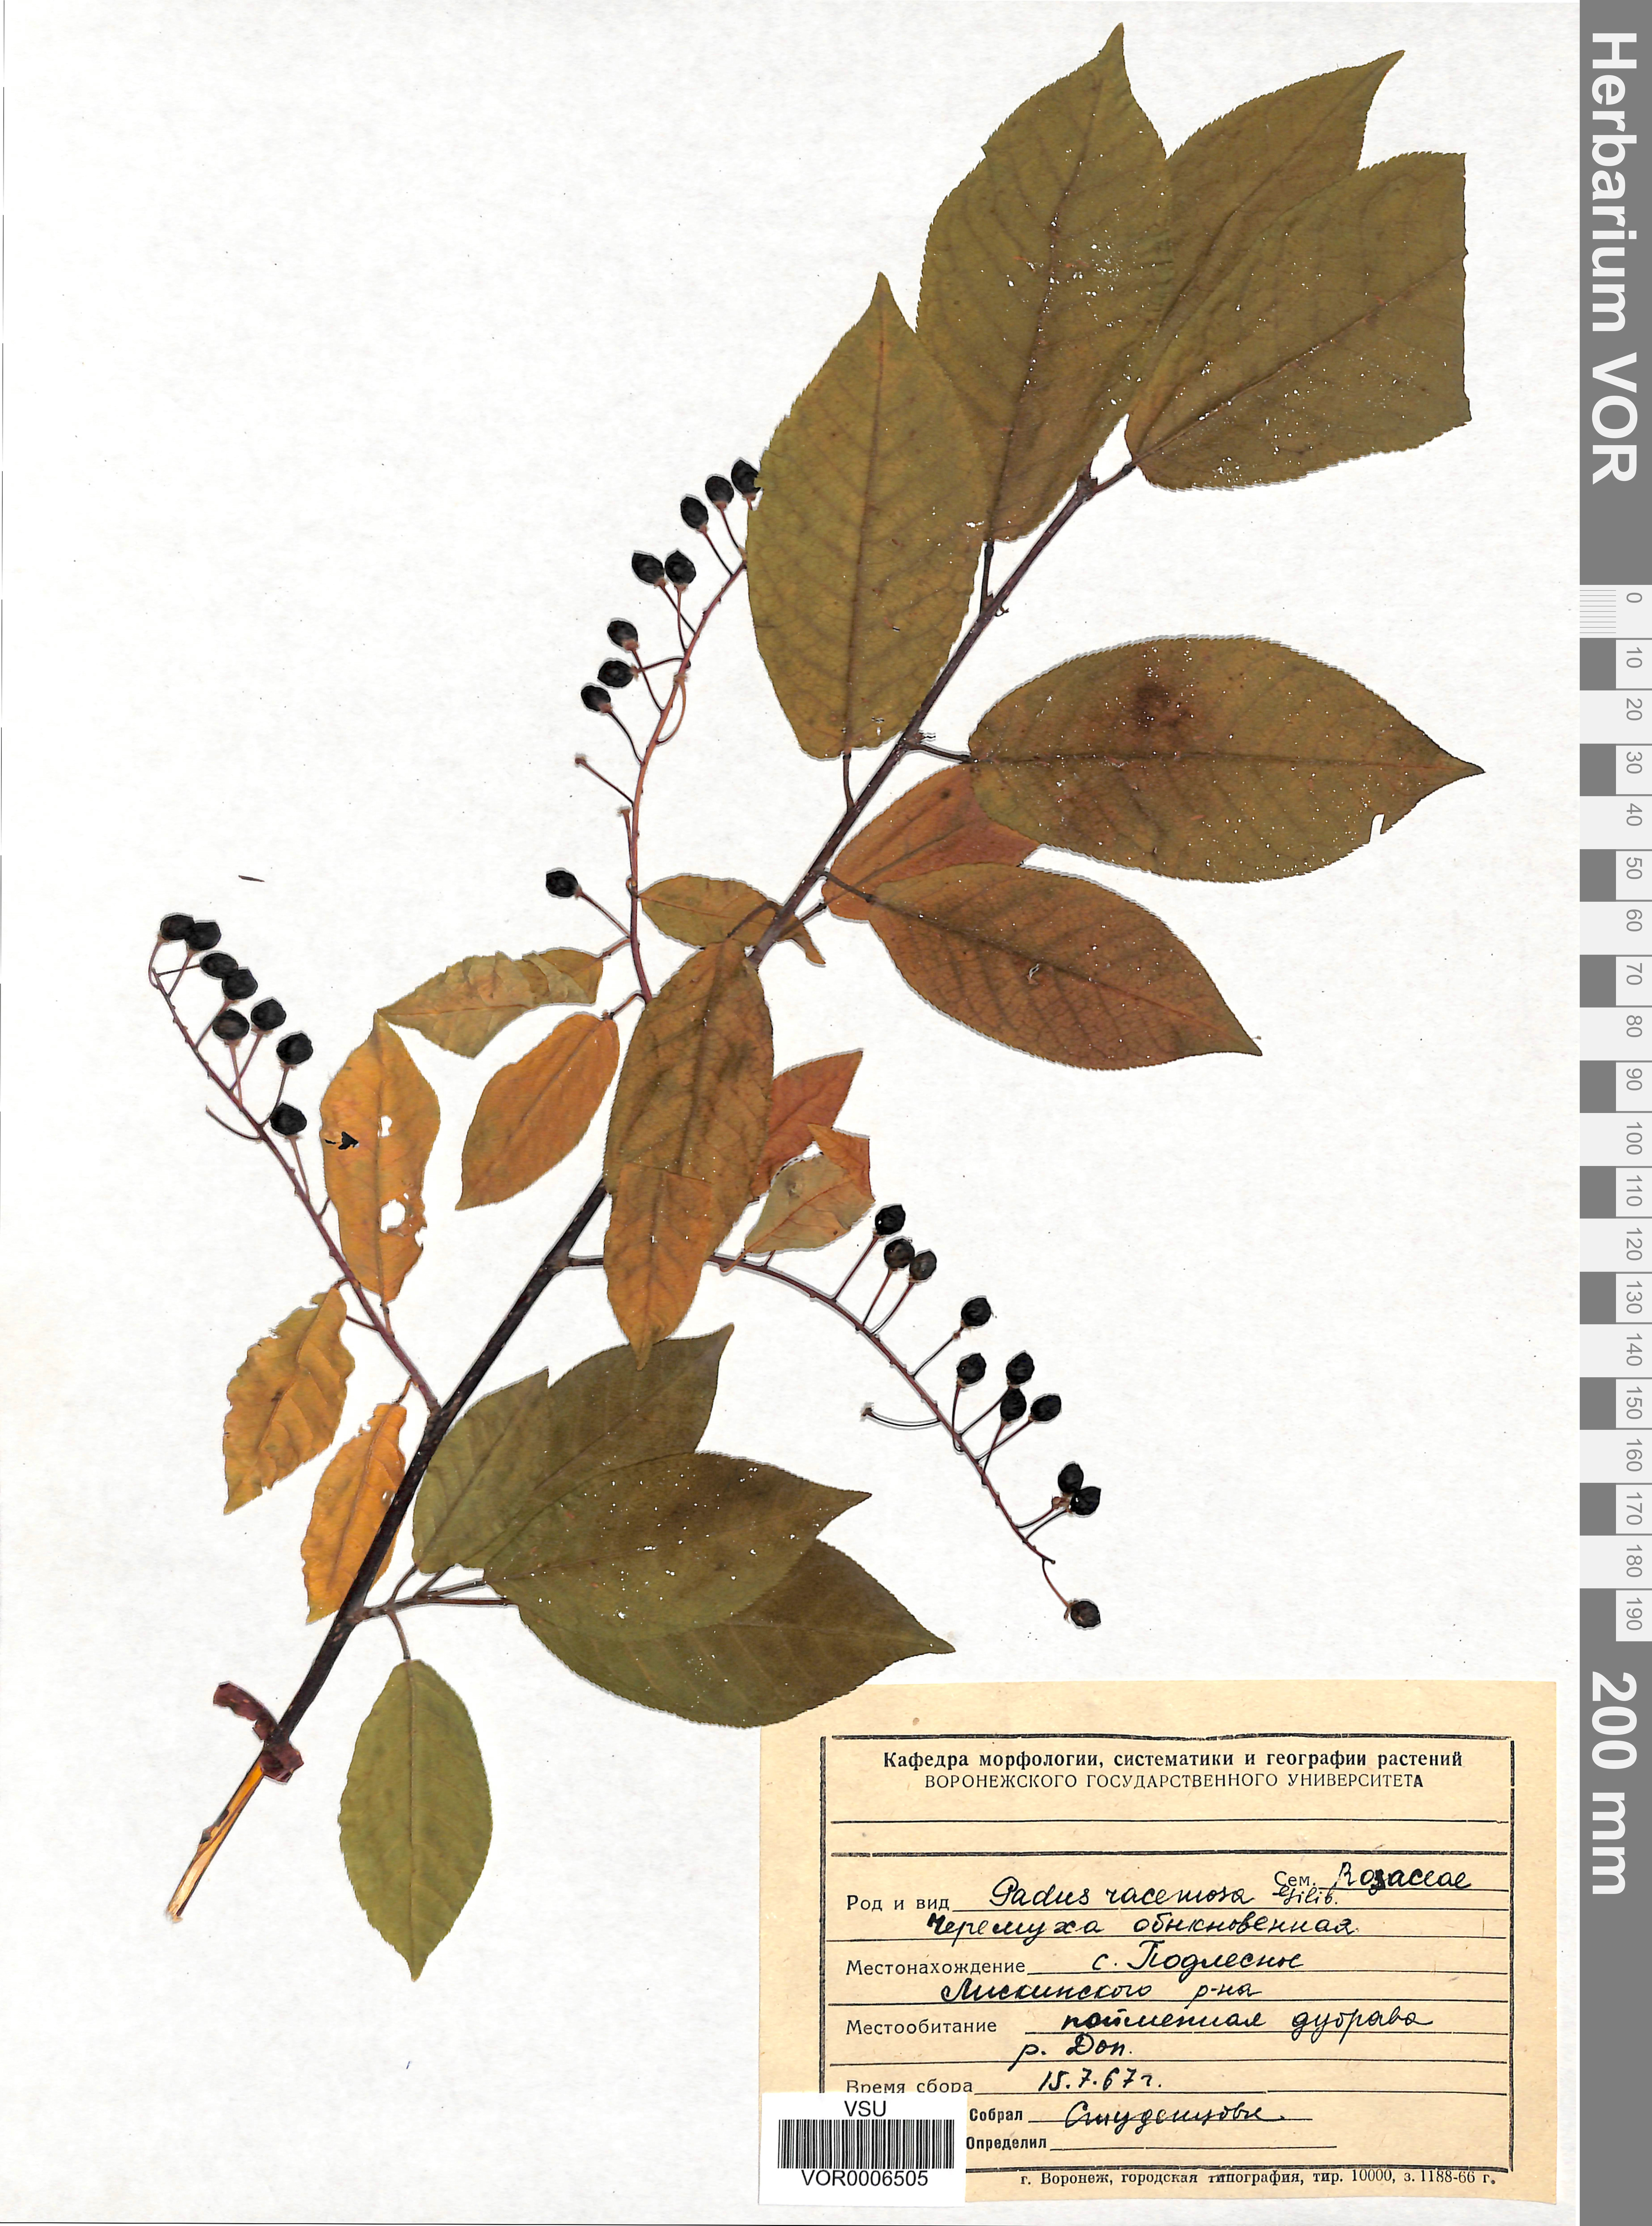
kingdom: Plantae
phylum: Tracheophyta
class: Magnoliopsida
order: Rosales
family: Rosaceae
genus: Prunus
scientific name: Prunus padus
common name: Bird cherry
